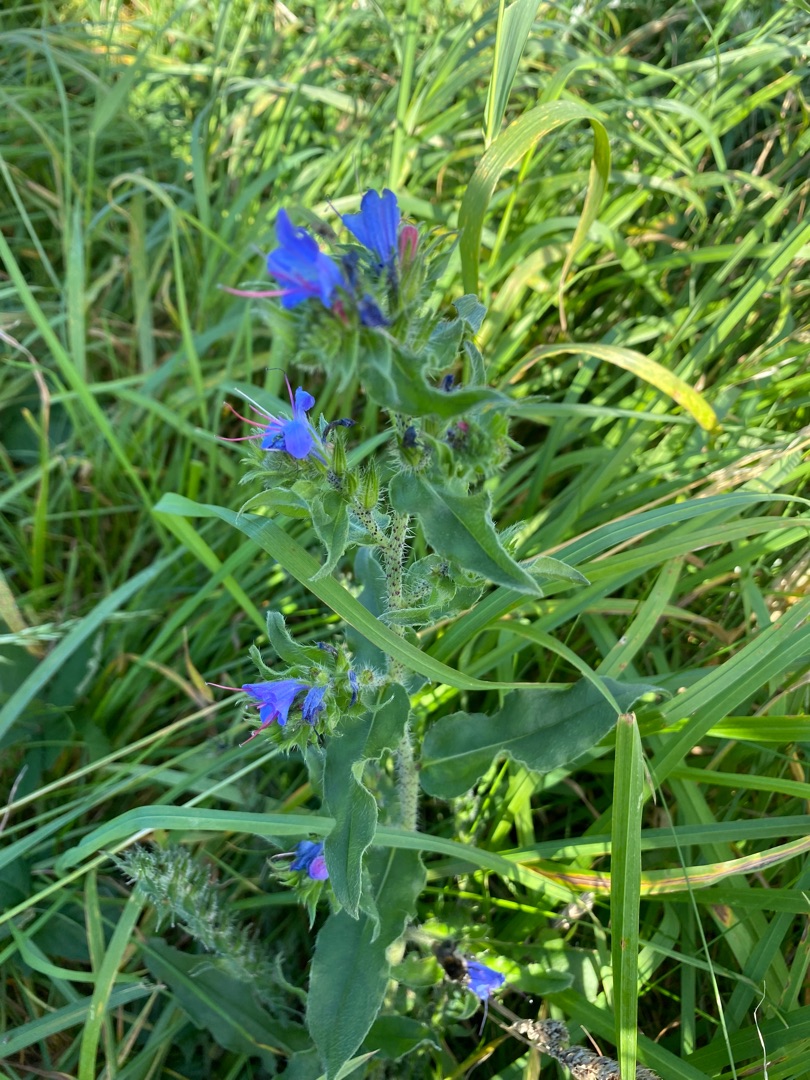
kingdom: Plantae
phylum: Tracheophyta
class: Magnoliopsida
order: Boraginales
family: Boraginaceae
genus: Echium
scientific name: Echium vulgare
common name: Slangehoved
